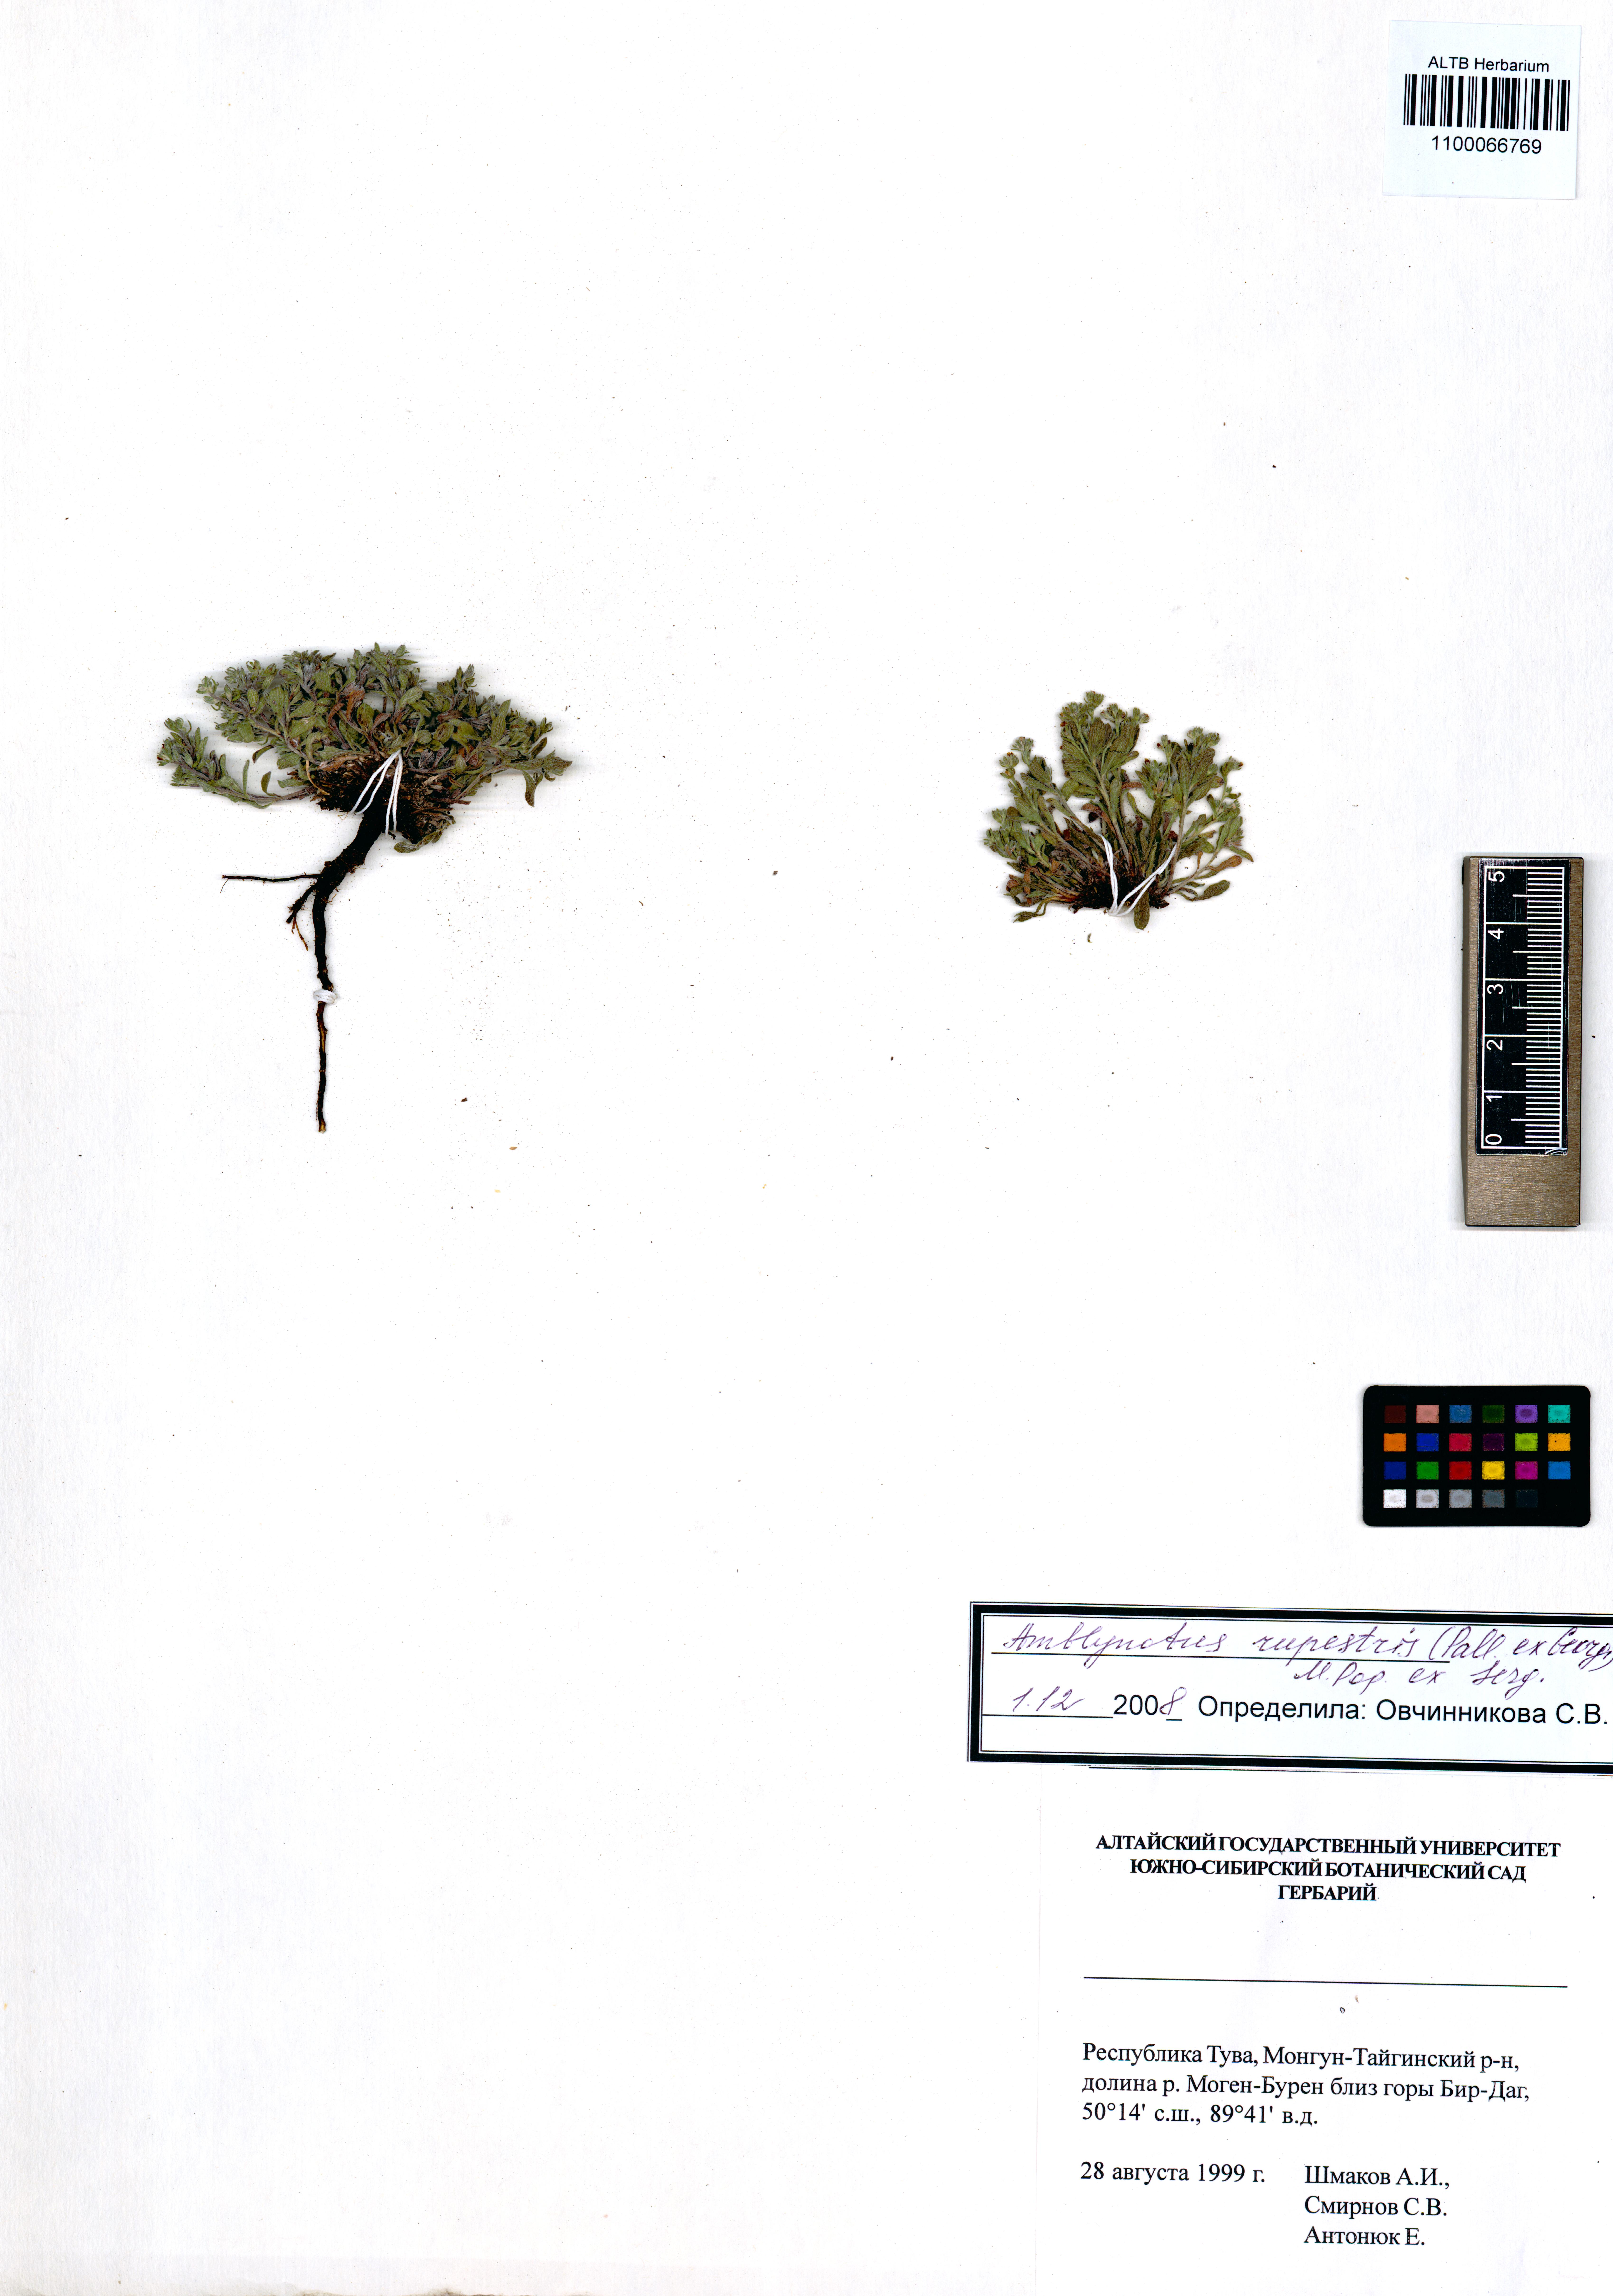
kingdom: Plantae
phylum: Tracheophyta
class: Magnoliopsida
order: Boraginales
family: Boraginaceae
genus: Eritrichium
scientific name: Eritrichium rupestre
